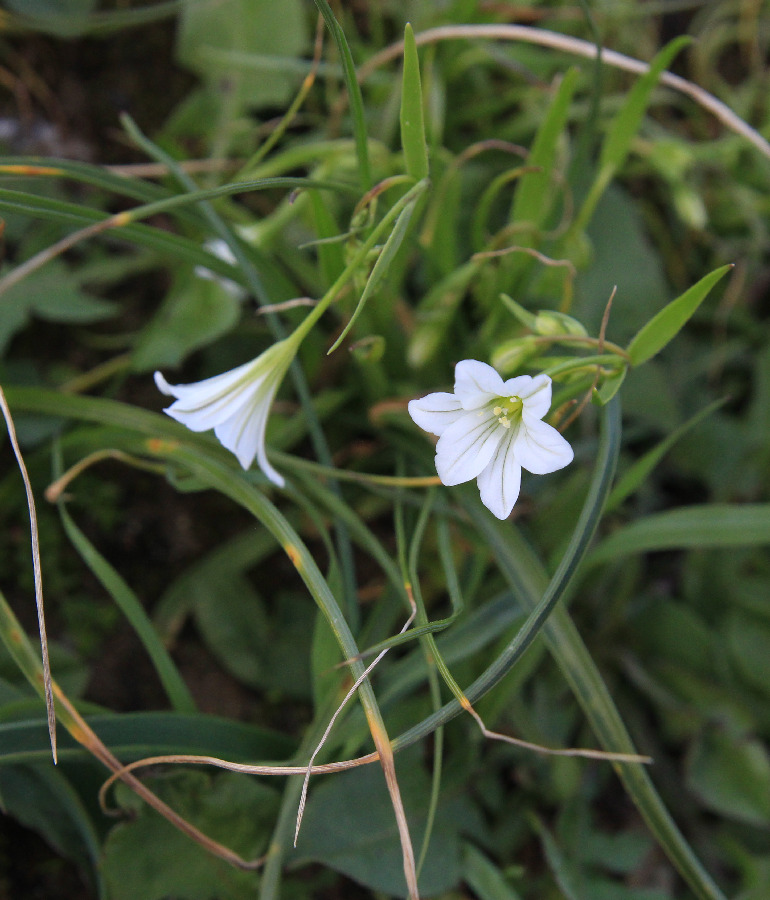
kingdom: Plantae
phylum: Tracheophyta
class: Liliopsida
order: Liliales
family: Liliaceae
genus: Gagea
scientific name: Gagea graeca
